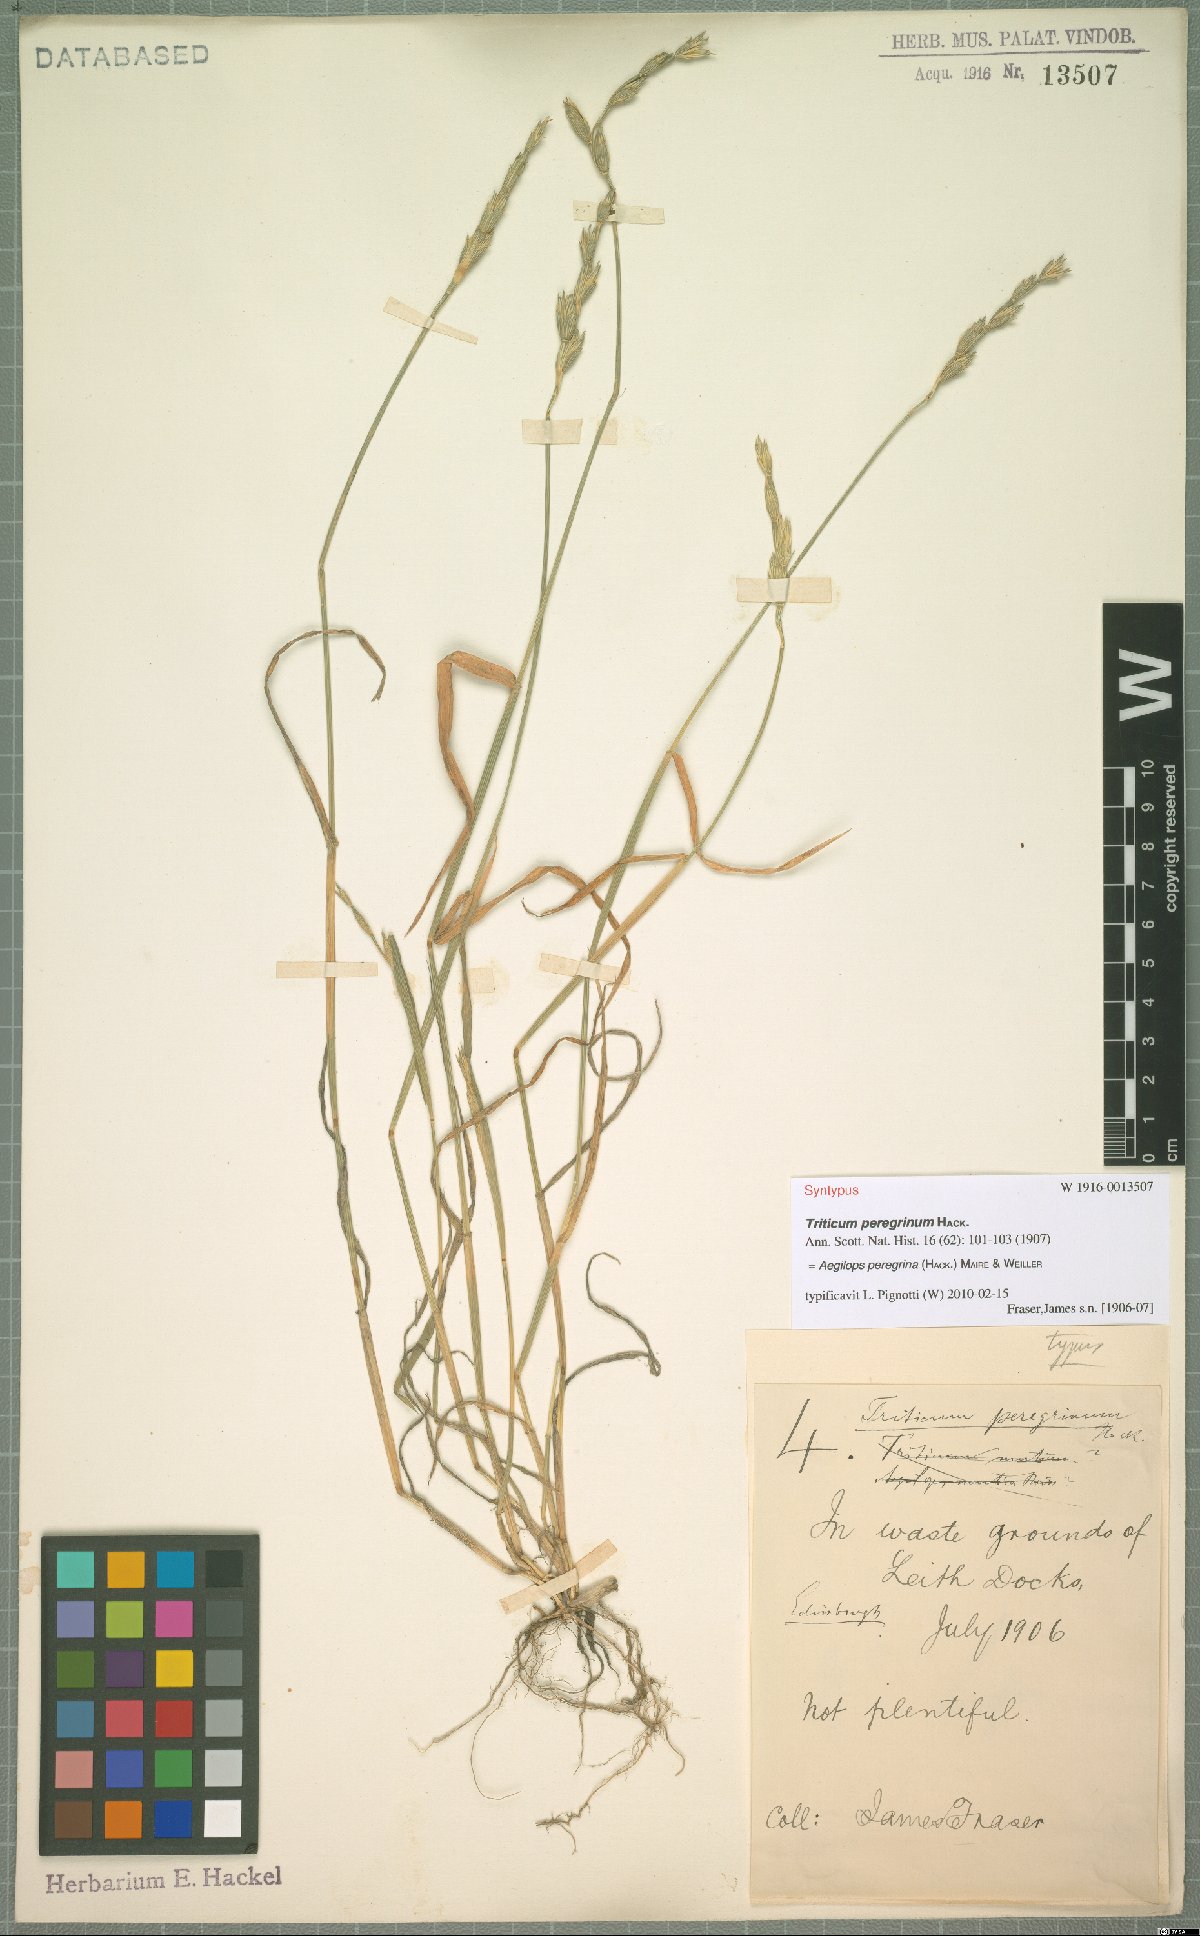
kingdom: Plantae
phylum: Tracheophyta
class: Liliopsida
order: Poales
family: Poaceae
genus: Aegilops
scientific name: Aegilops peregrina
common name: Goatgrass
